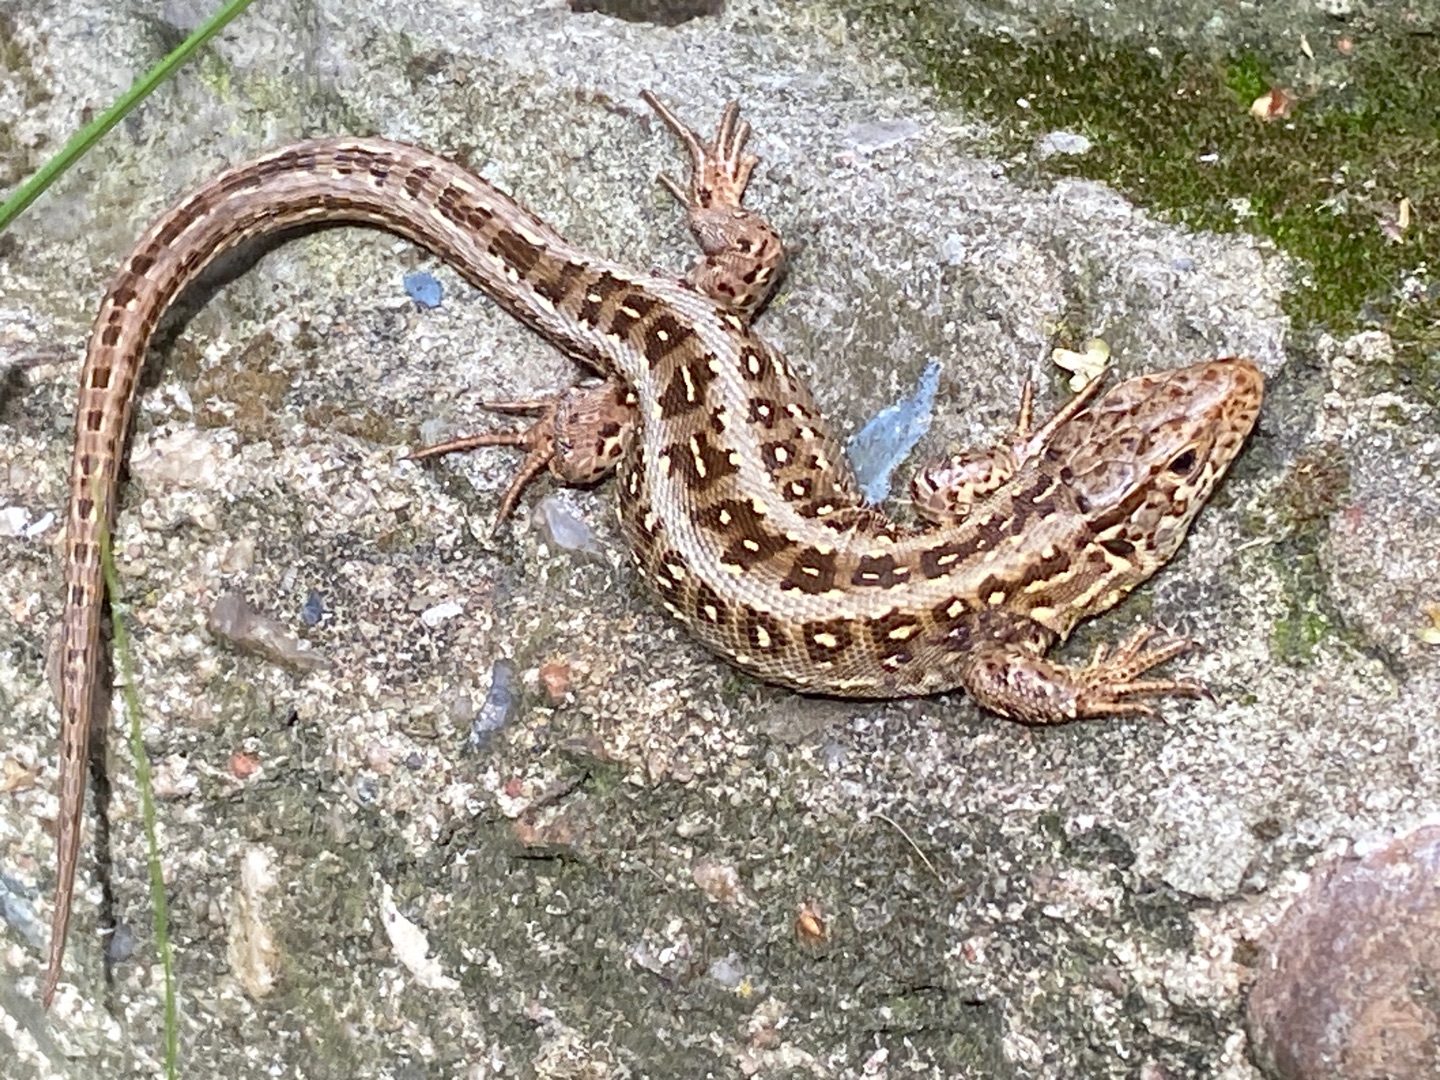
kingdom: Animalia
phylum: Chordata
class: Squamata
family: Lacertidae
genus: Lacerta
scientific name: Lacerta agilis
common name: Markfirben
